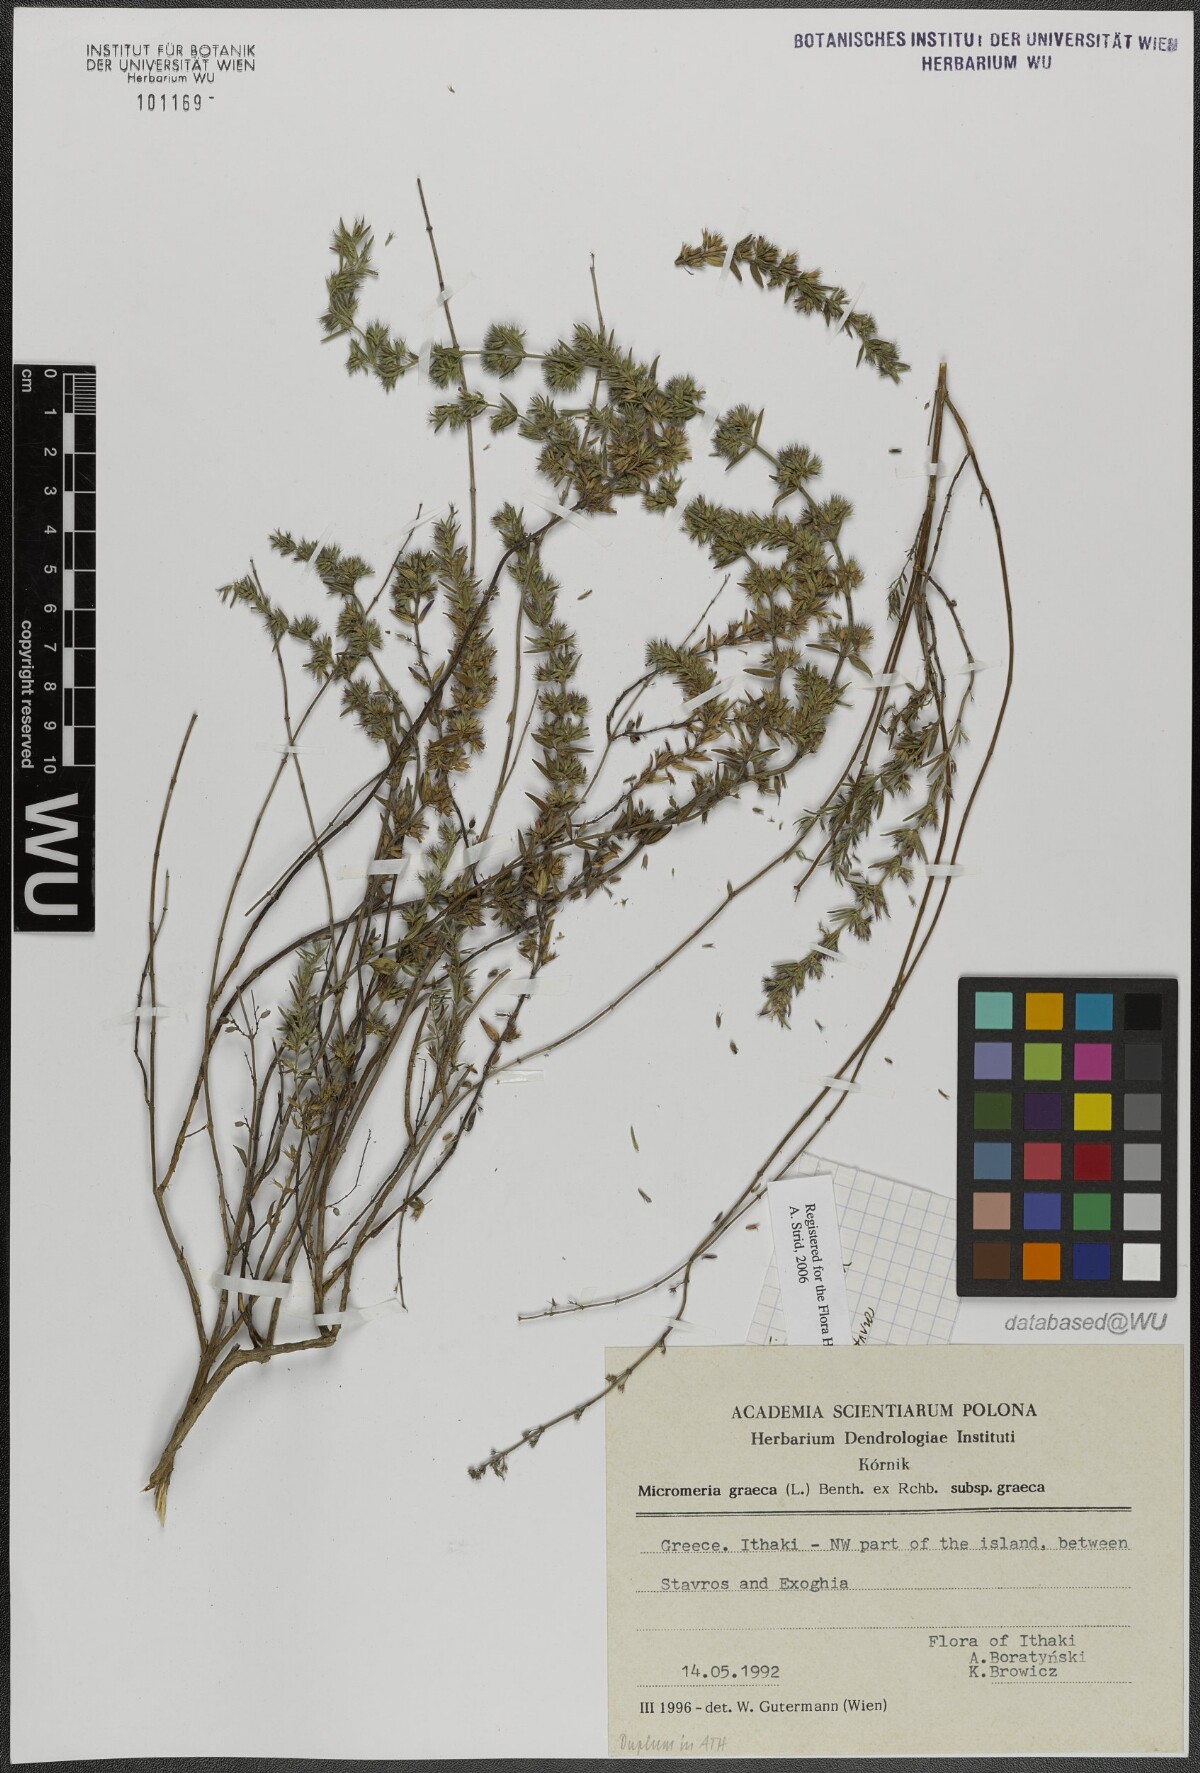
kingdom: Plantae
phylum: Tracheophyta
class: Magnoliopsida
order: Lamiales
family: Lamiaceae
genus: Micromeria
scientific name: Micromeria graeca
